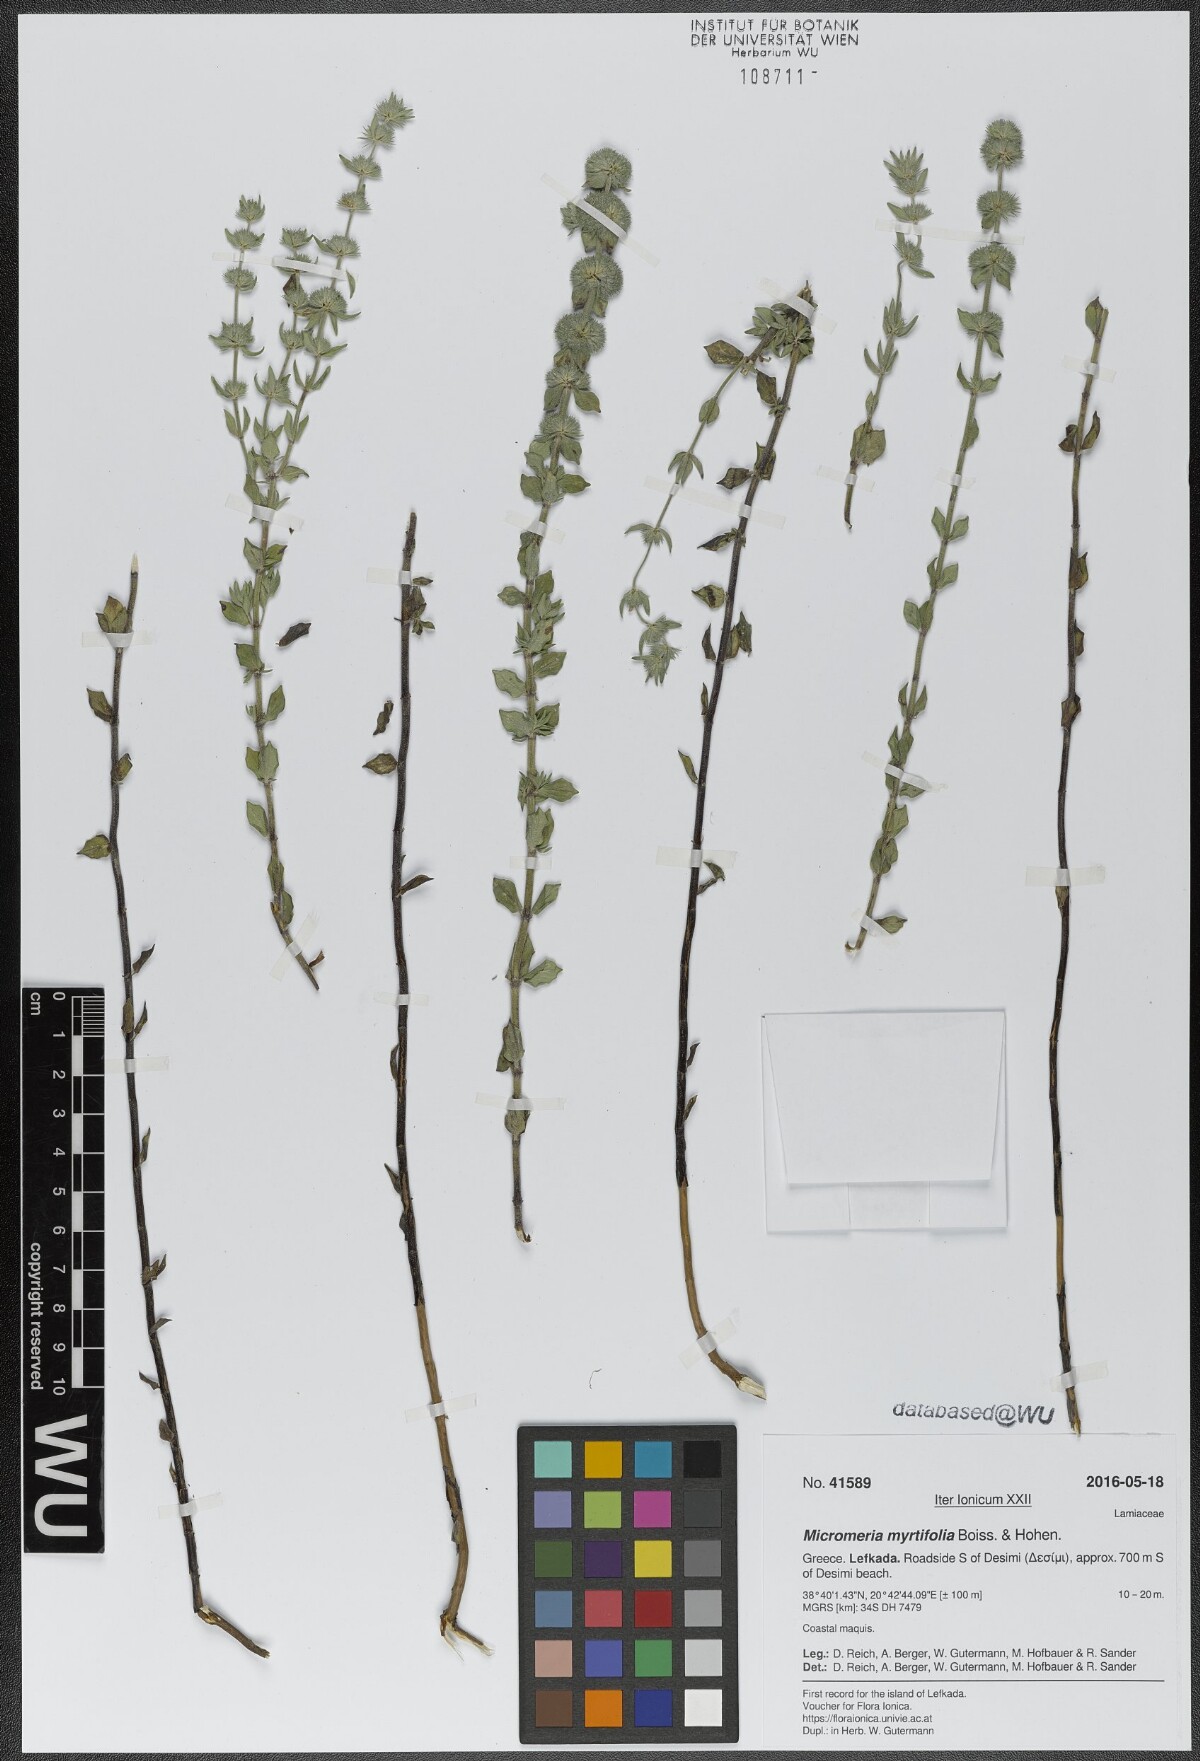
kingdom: Plantae
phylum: Tracheophyta
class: Magnoliopsida
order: Lamiales
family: Lamiaceae
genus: Micromeria
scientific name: Micromeria myrtifolia
